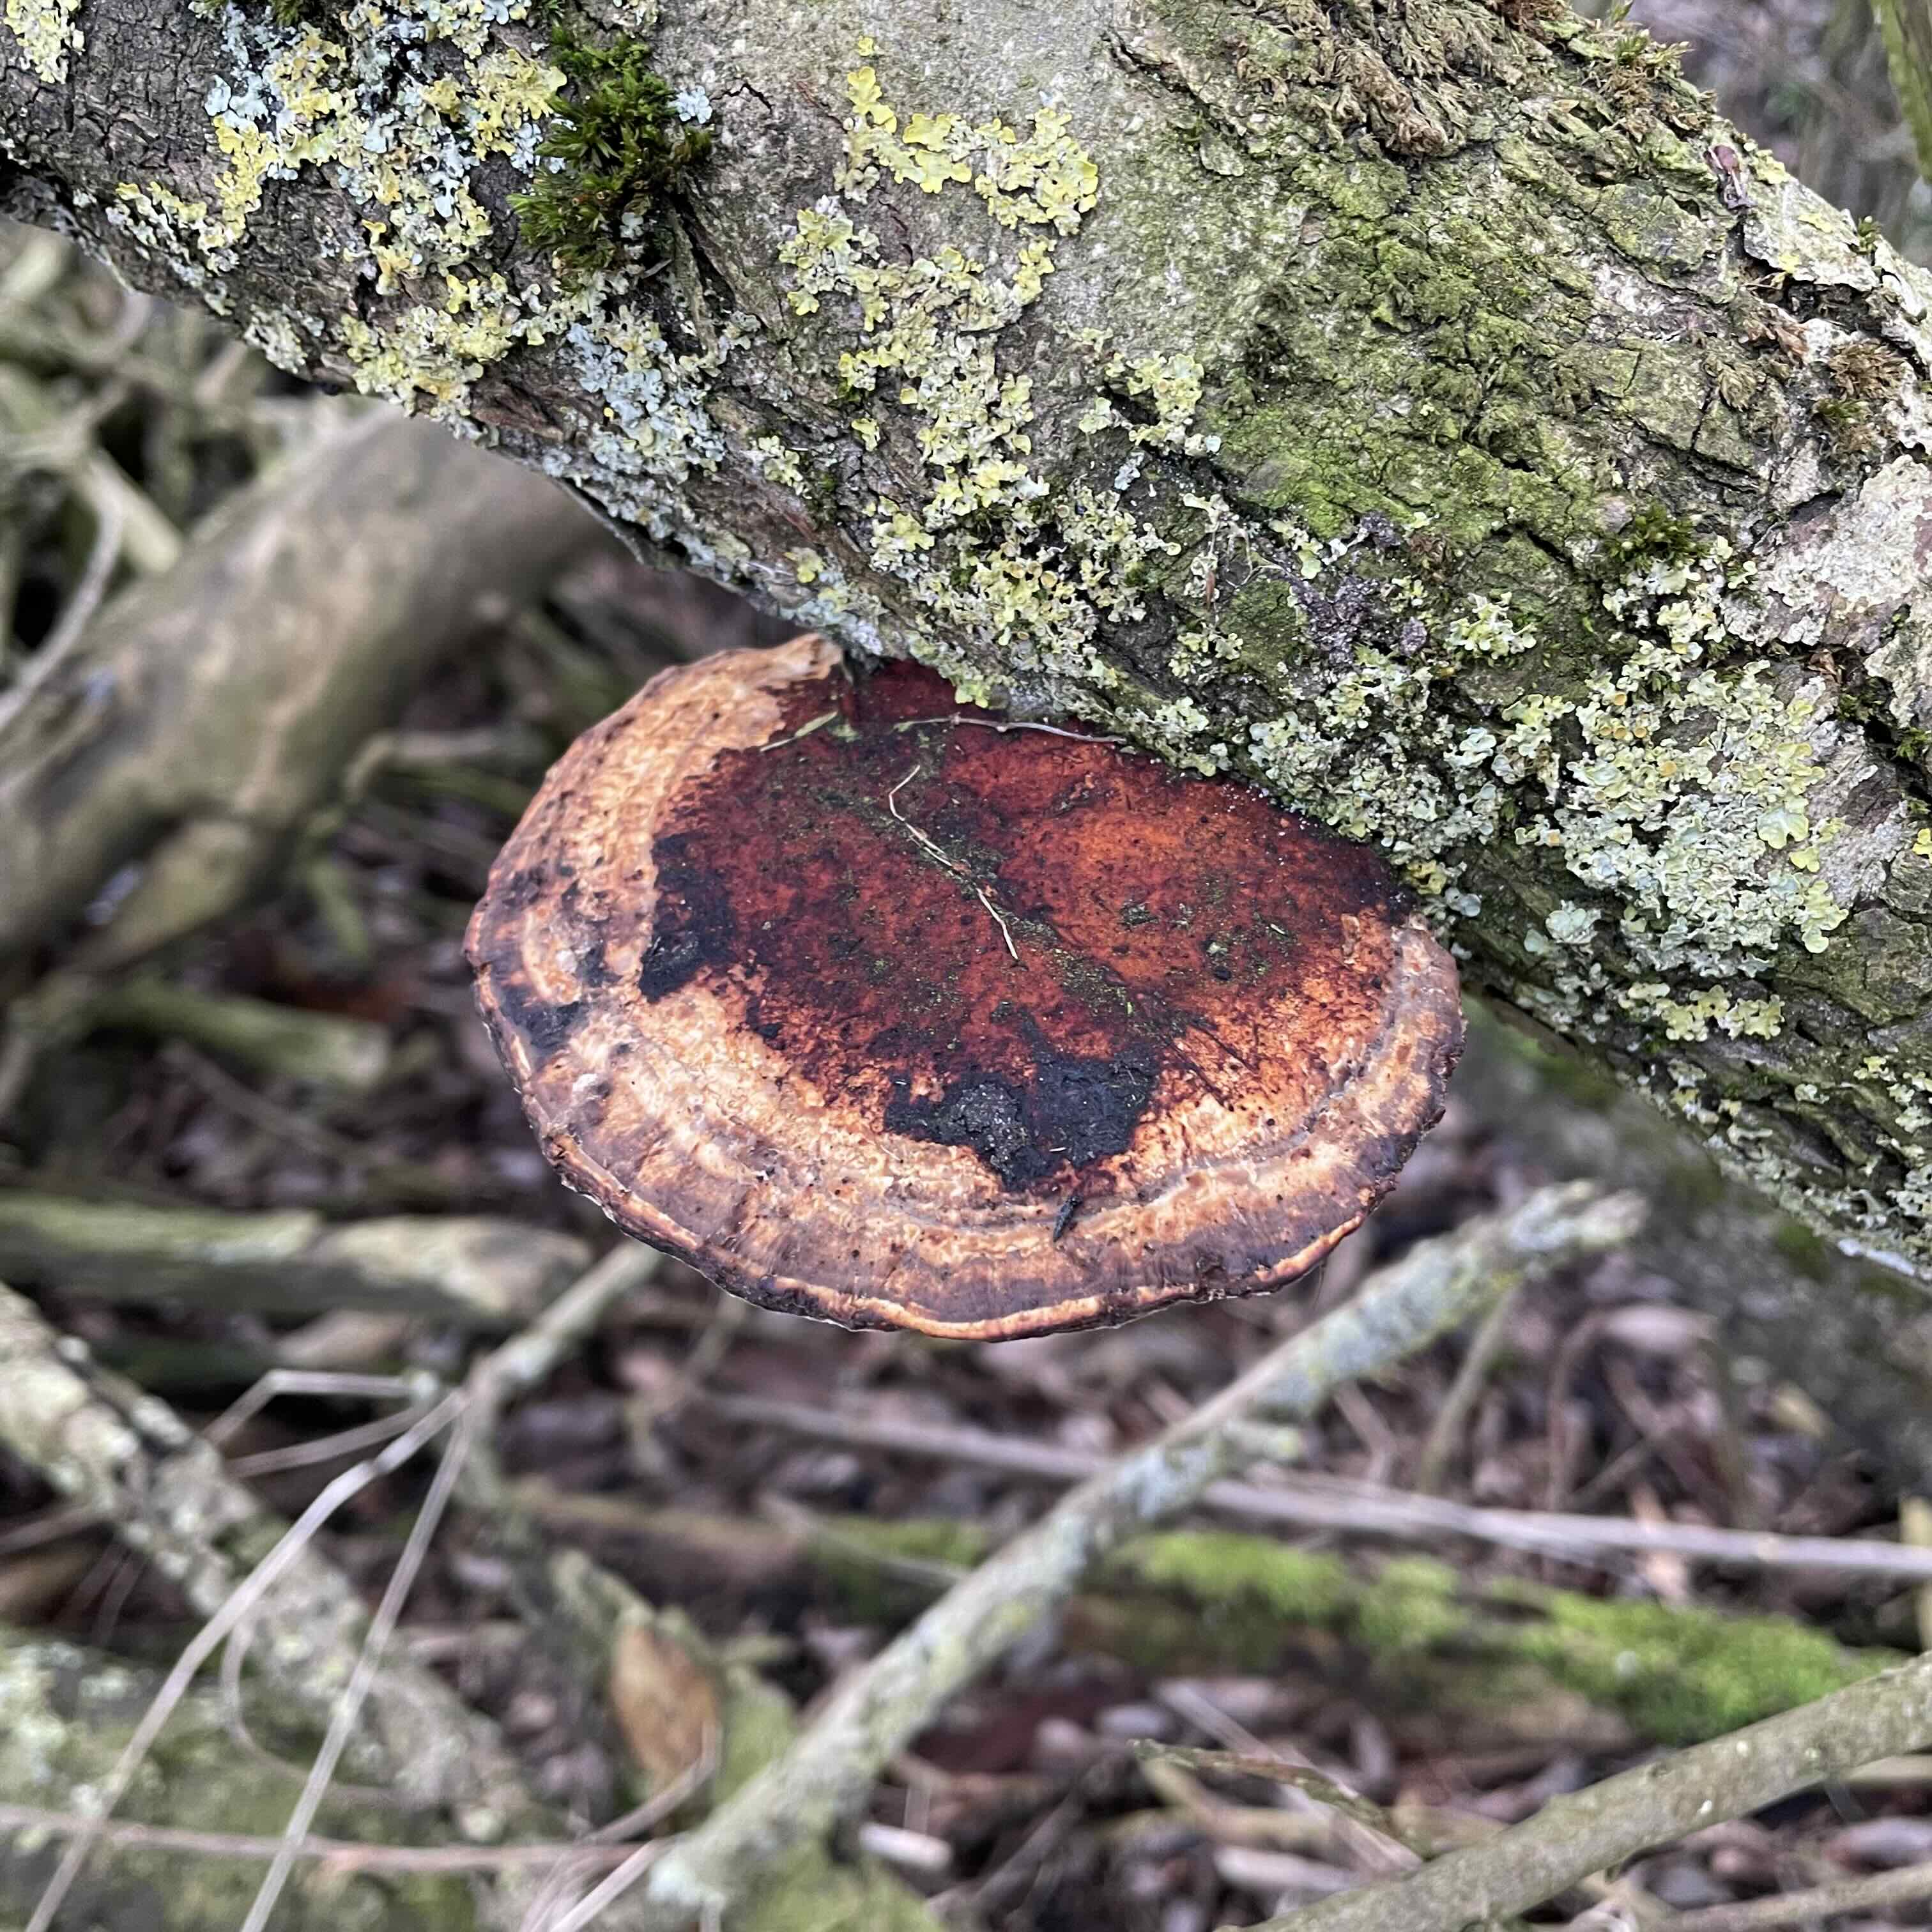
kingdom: Fungi
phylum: Basidiomycota
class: Agaricomycetes
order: Polyporales
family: Polyporaceae
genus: Daedaleopsis
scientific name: Daedaleopsis confragosa
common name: rødmende læderporesvamp
